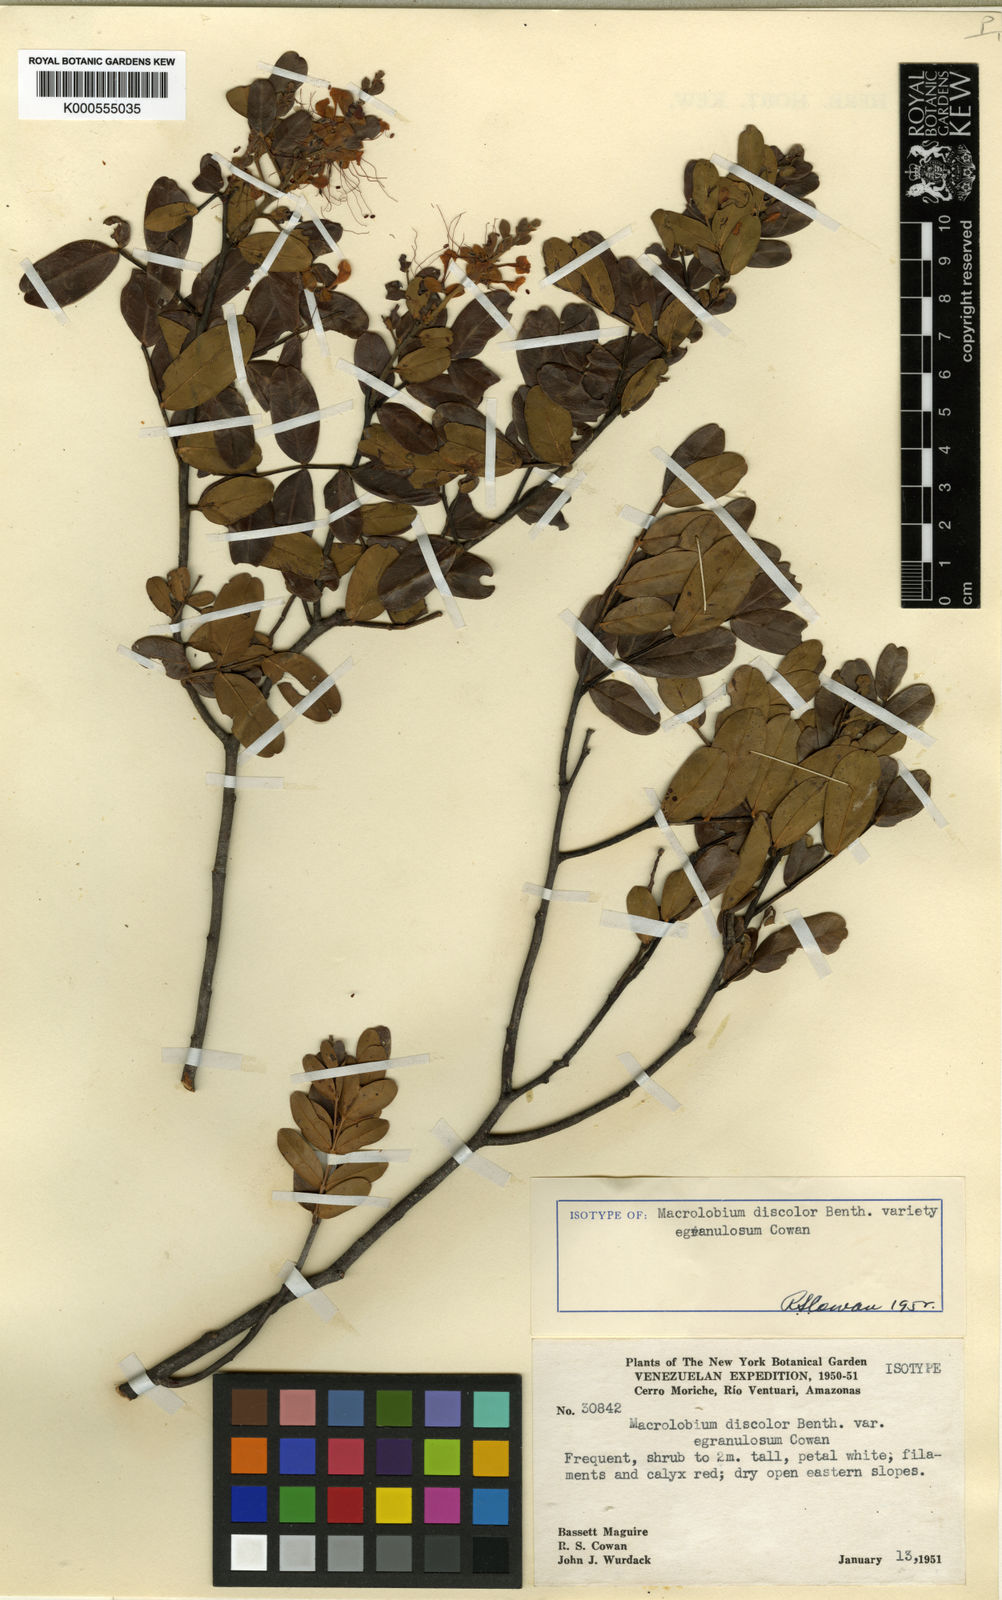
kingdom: Plantae
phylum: Tracheophyta
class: Magnoliopsida
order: Fabales
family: Fabaceae
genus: Macrolobium
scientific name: Macrolobium discolor
